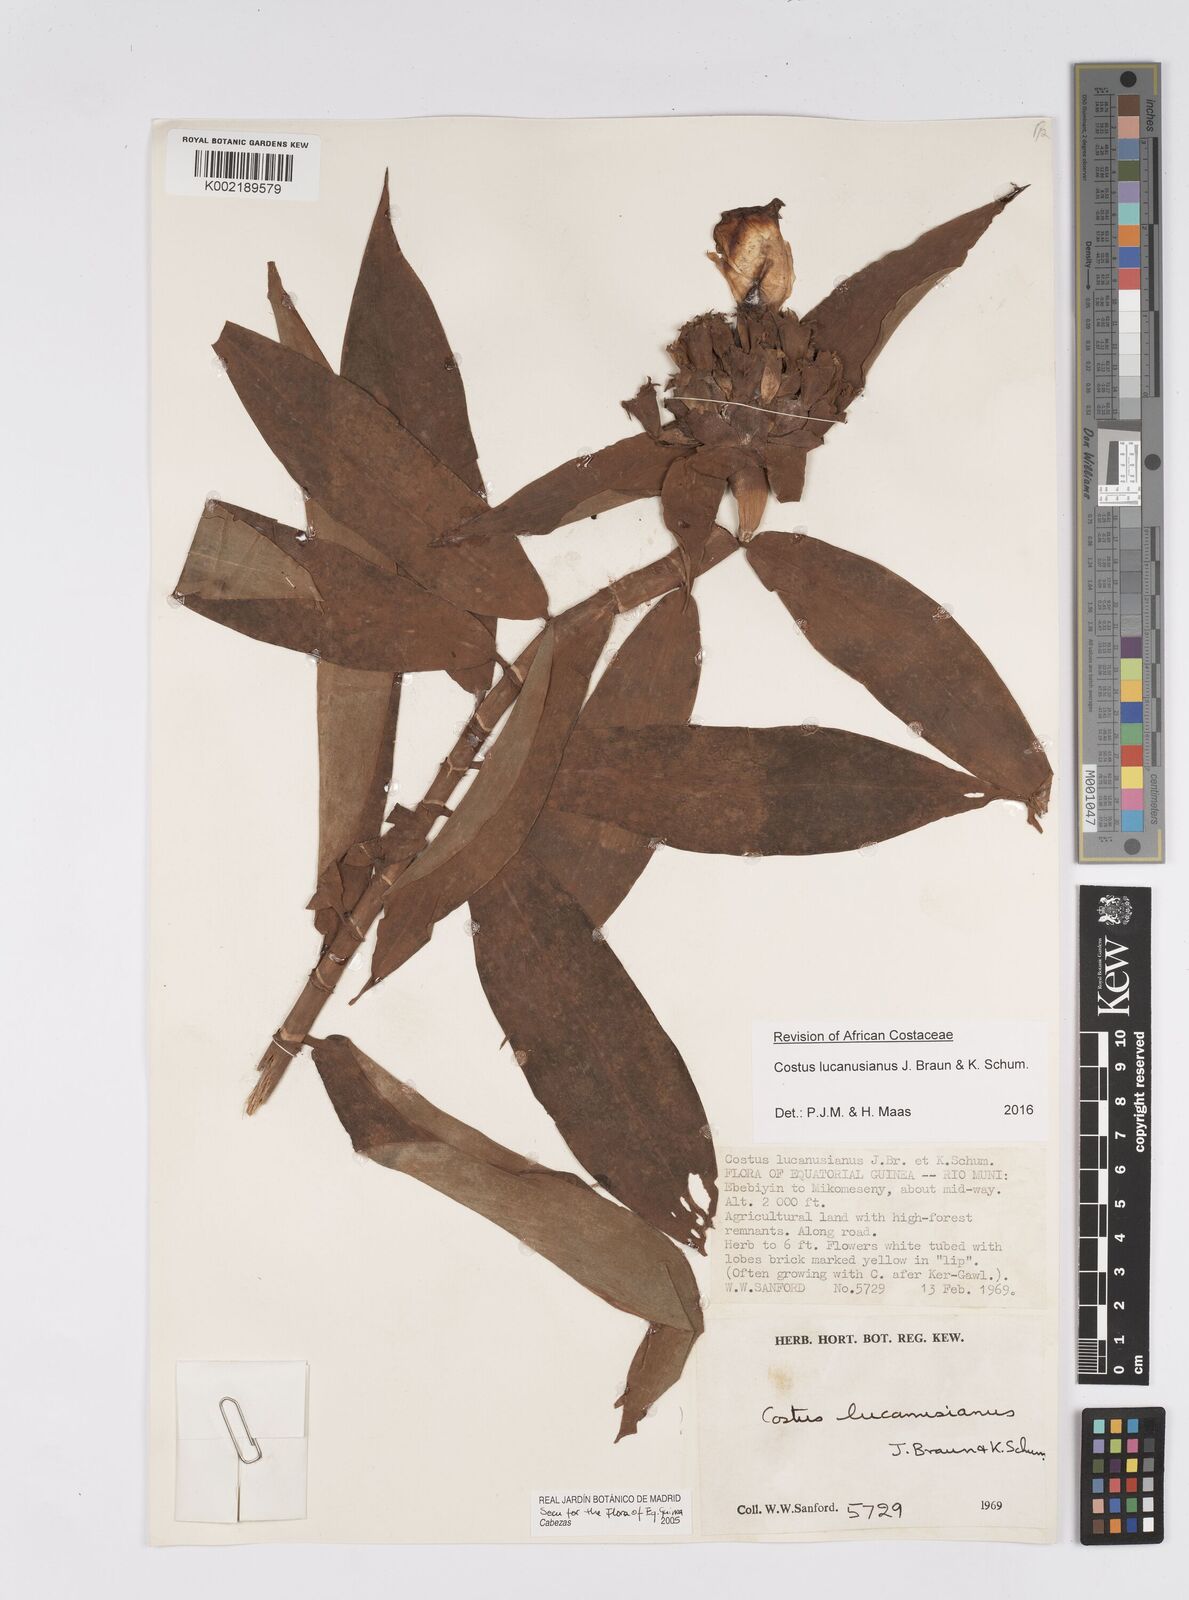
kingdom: Plantae
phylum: Tracheophyta
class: Liliopsida
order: Zingiberales
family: Costaceae
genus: Costus
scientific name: Costus lucanusianus
